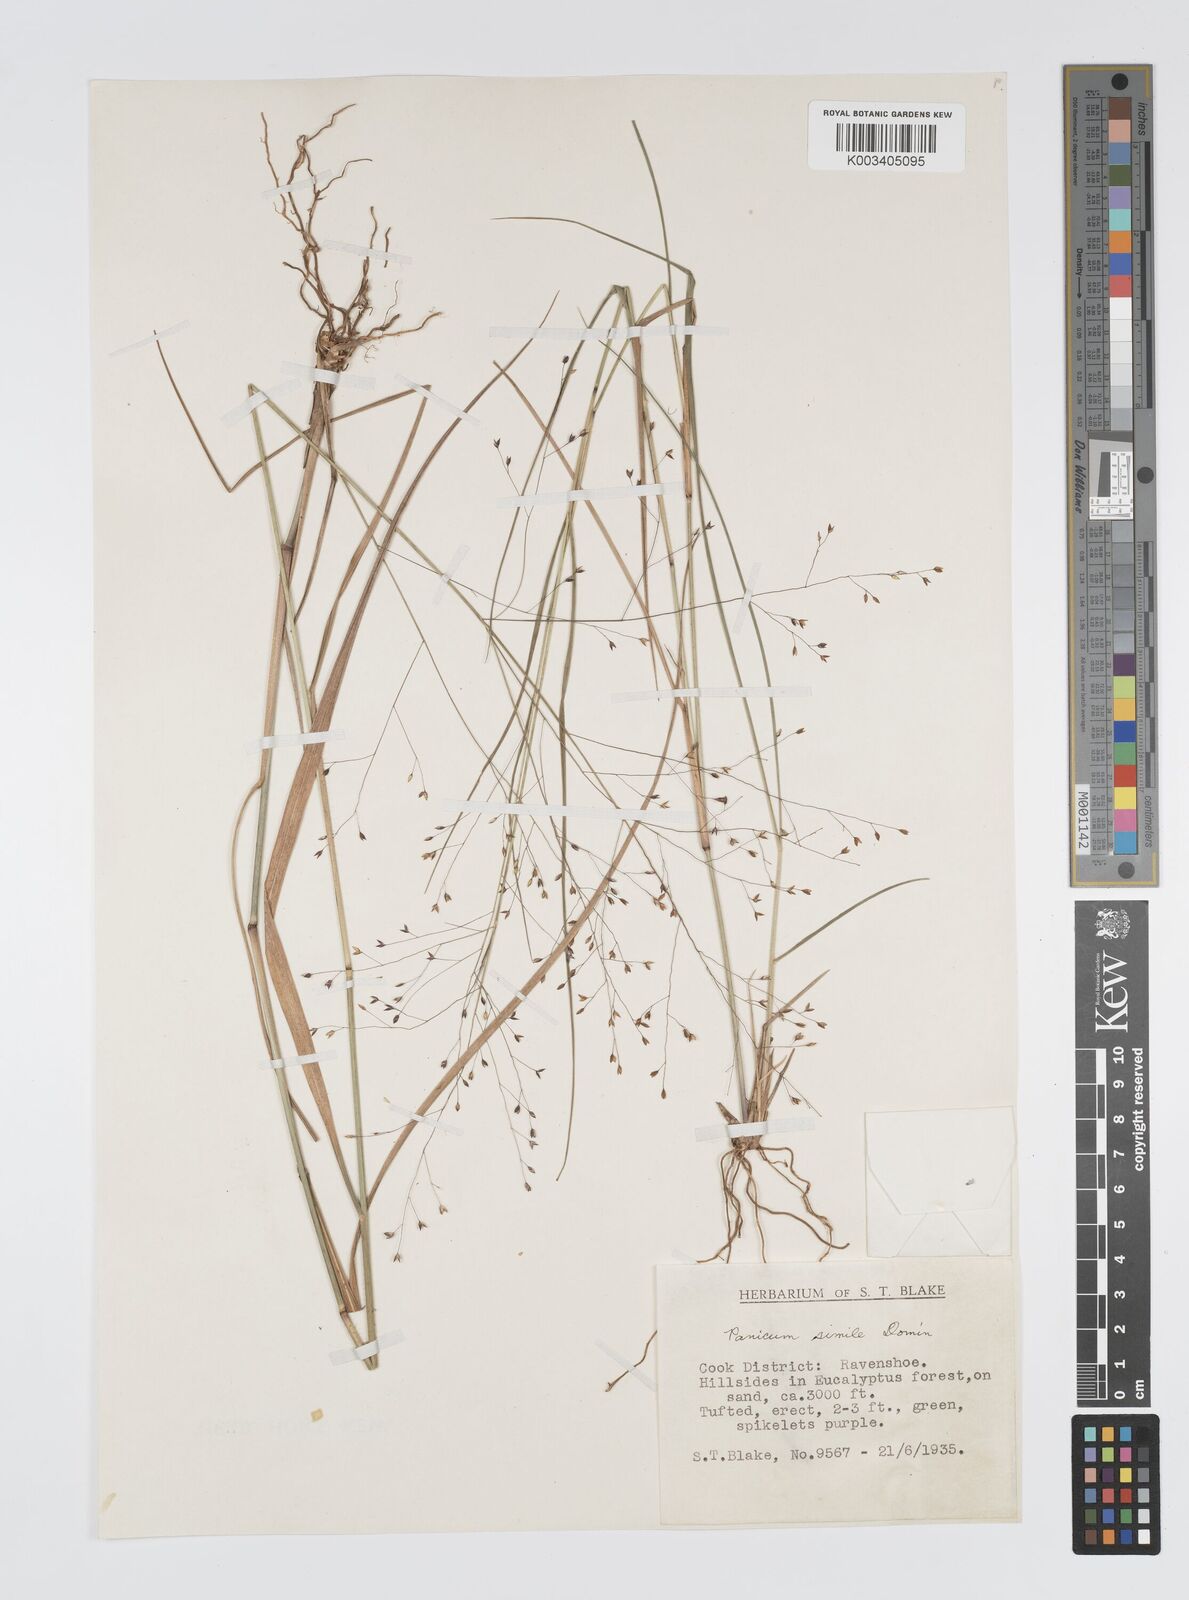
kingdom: Plantae
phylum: Tracheophyta
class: Liliopsida
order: Poales
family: Poaceae
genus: Panicum
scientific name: Panicum simile
